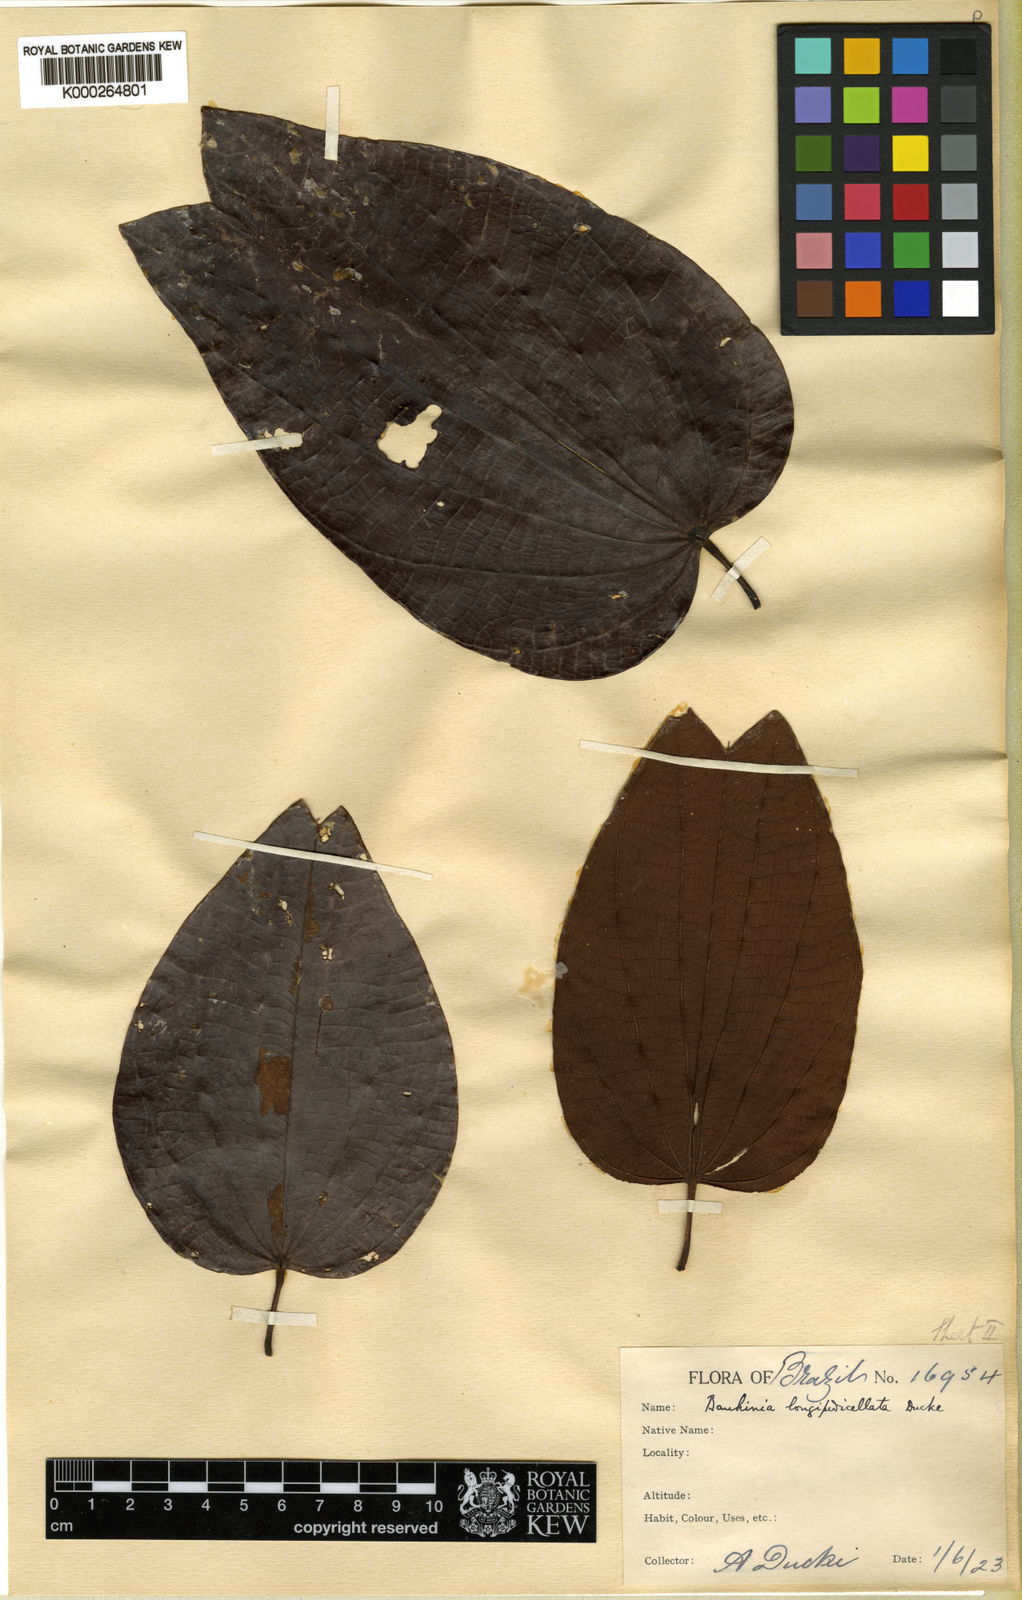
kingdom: Plantae
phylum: Tracheophyta
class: Magnoliopsida
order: Fabales
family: Fabaceae
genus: Bauhinia
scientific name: Bauhinia longipedicellata
